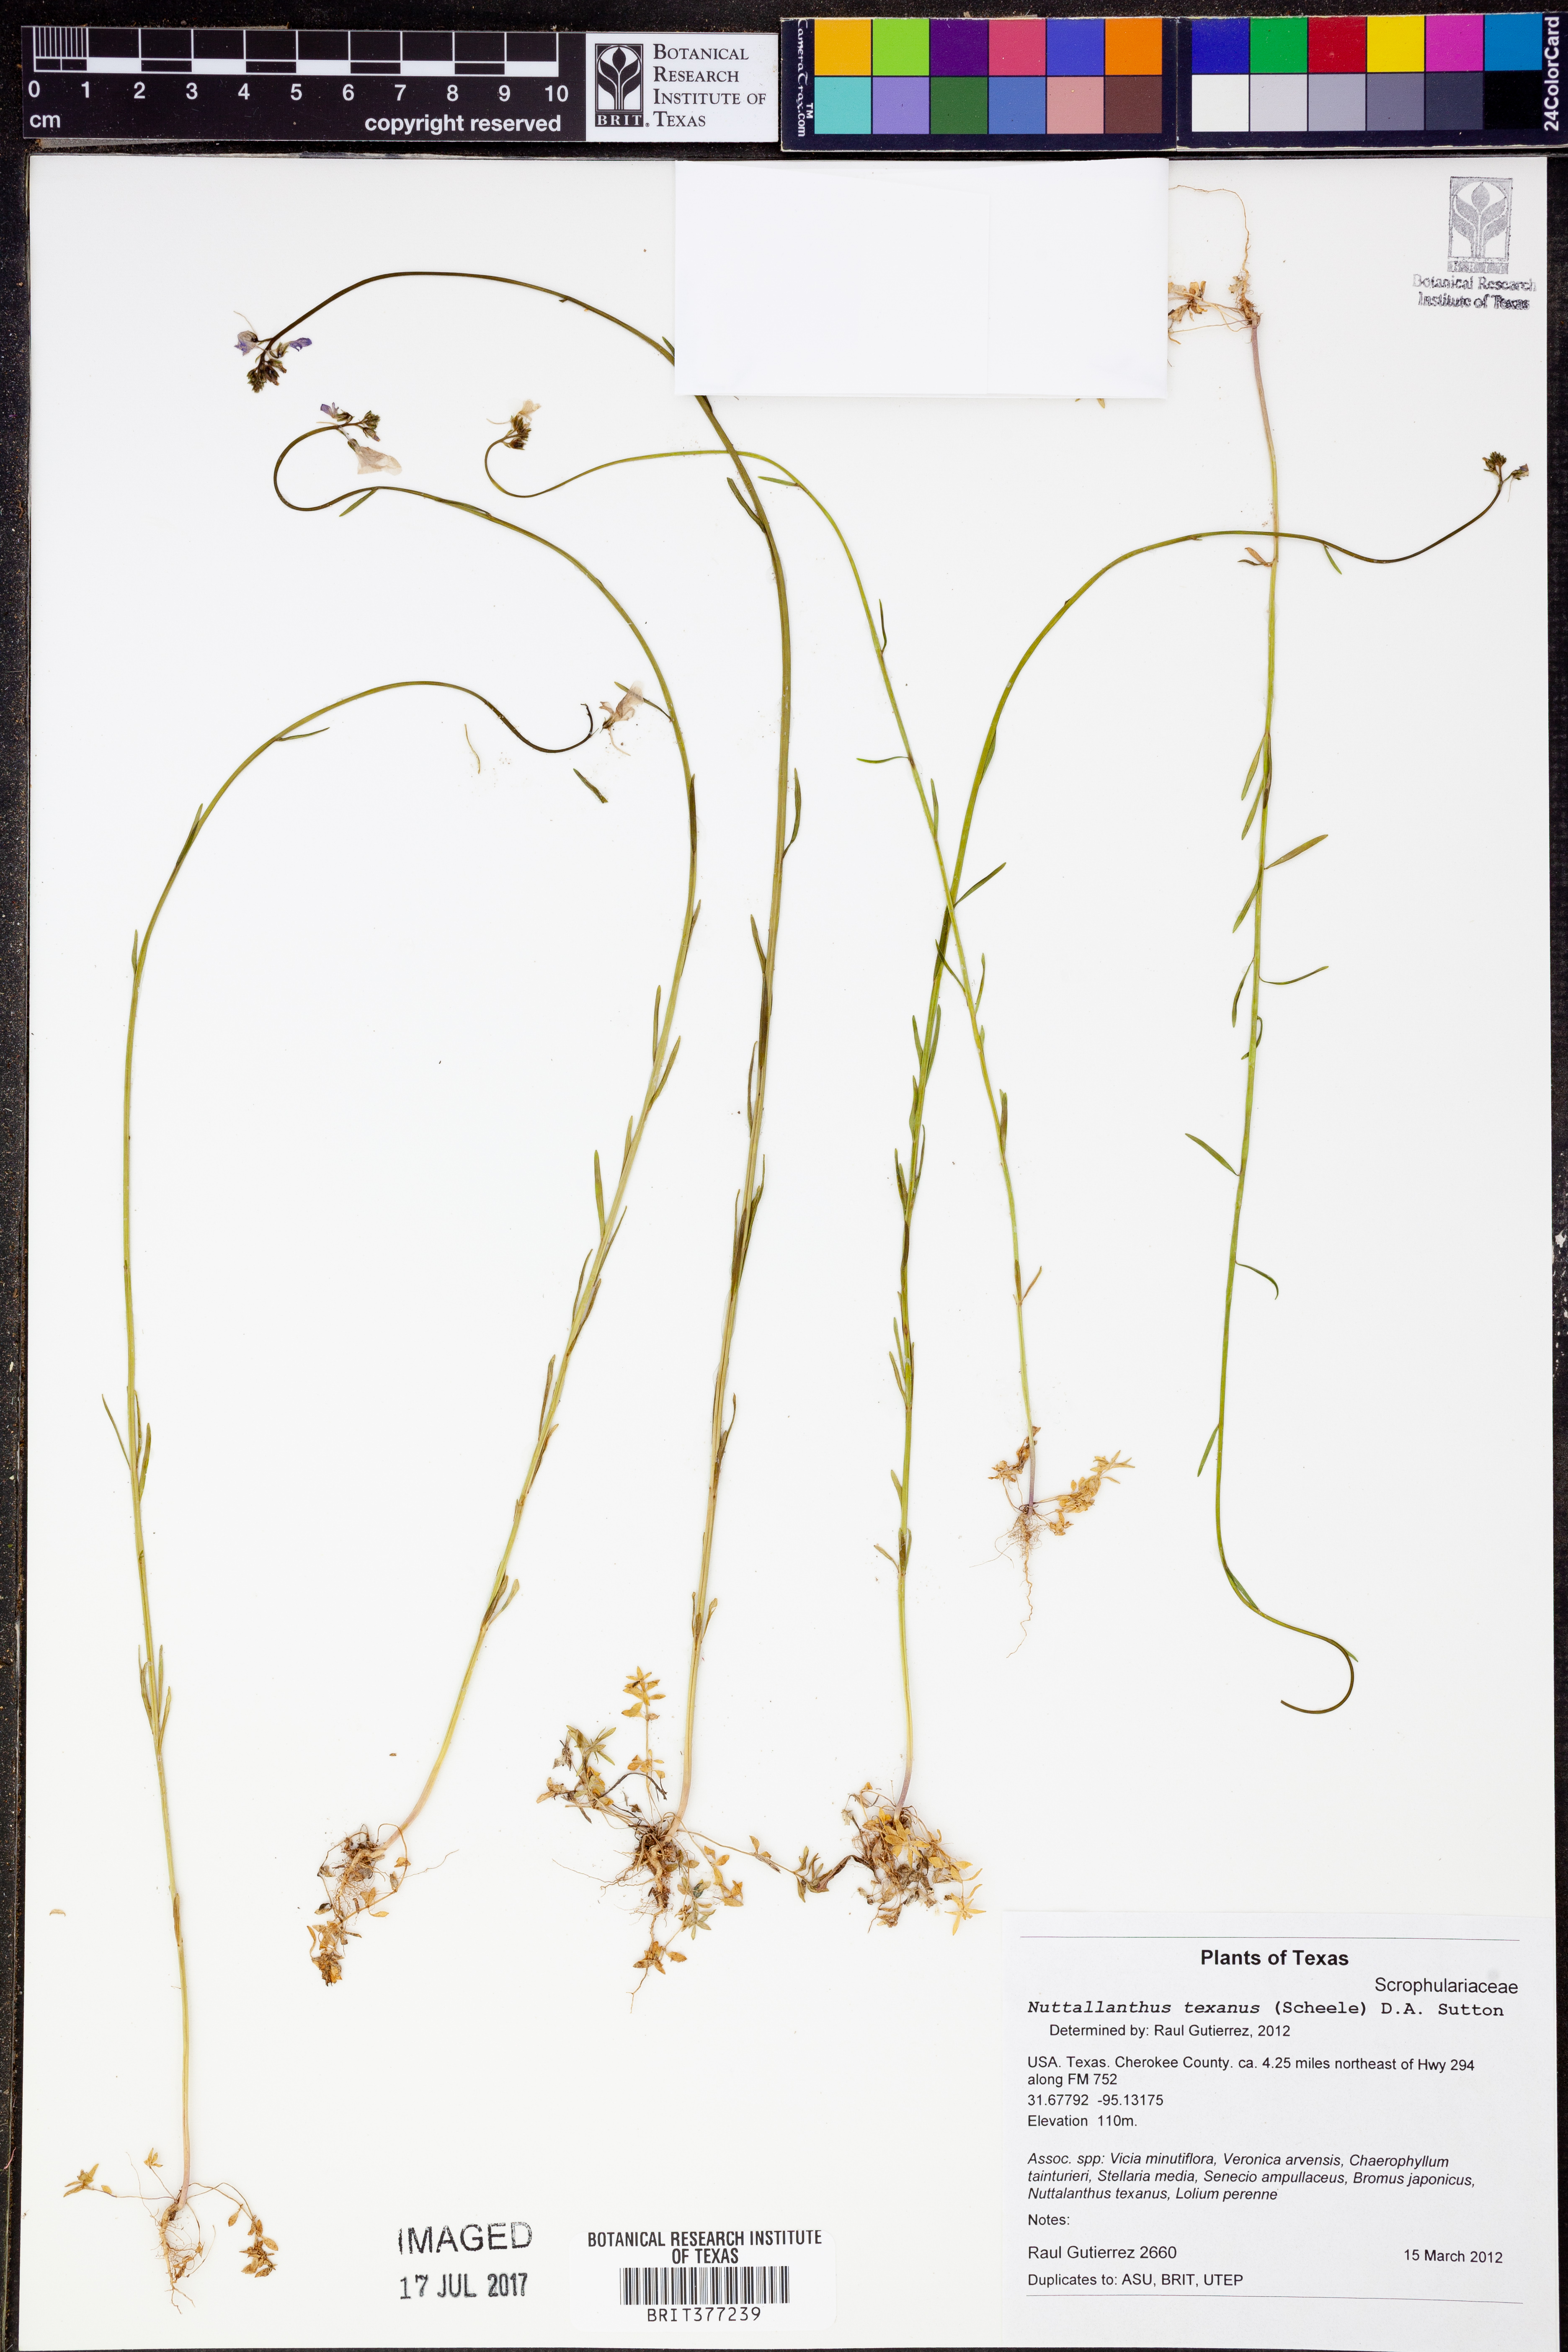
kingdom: Plantae
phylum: Tracheophyta
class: Magnoliopsida
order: Lamiales
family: Plantaginaceae
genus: Nuttallanthus
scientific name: Nuttallanthus texanus
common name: Texas toadflax
